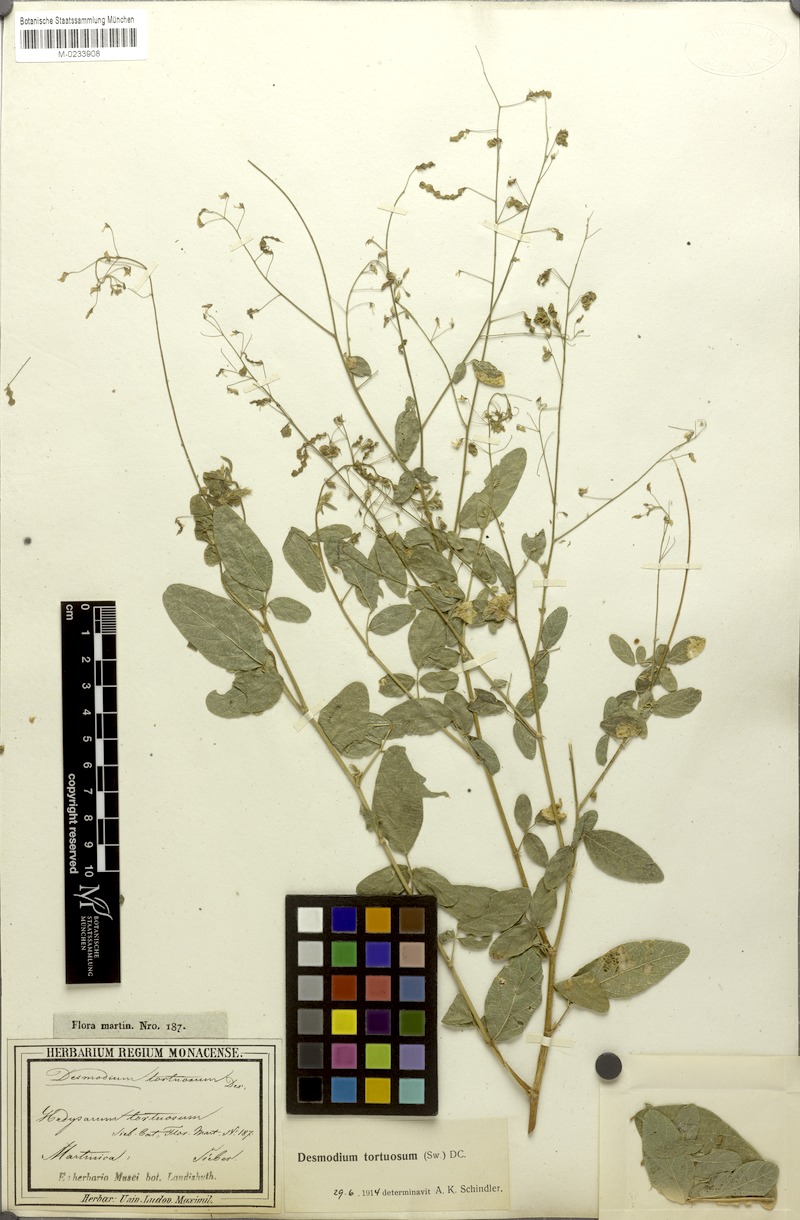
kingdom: Plantae
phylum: Tracheophyta
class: Magnoliopsida
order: Fabales
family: Fabaceae
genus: Desmodium
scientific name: Desmodium tortuosum
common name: Dixie ticktrefoil
